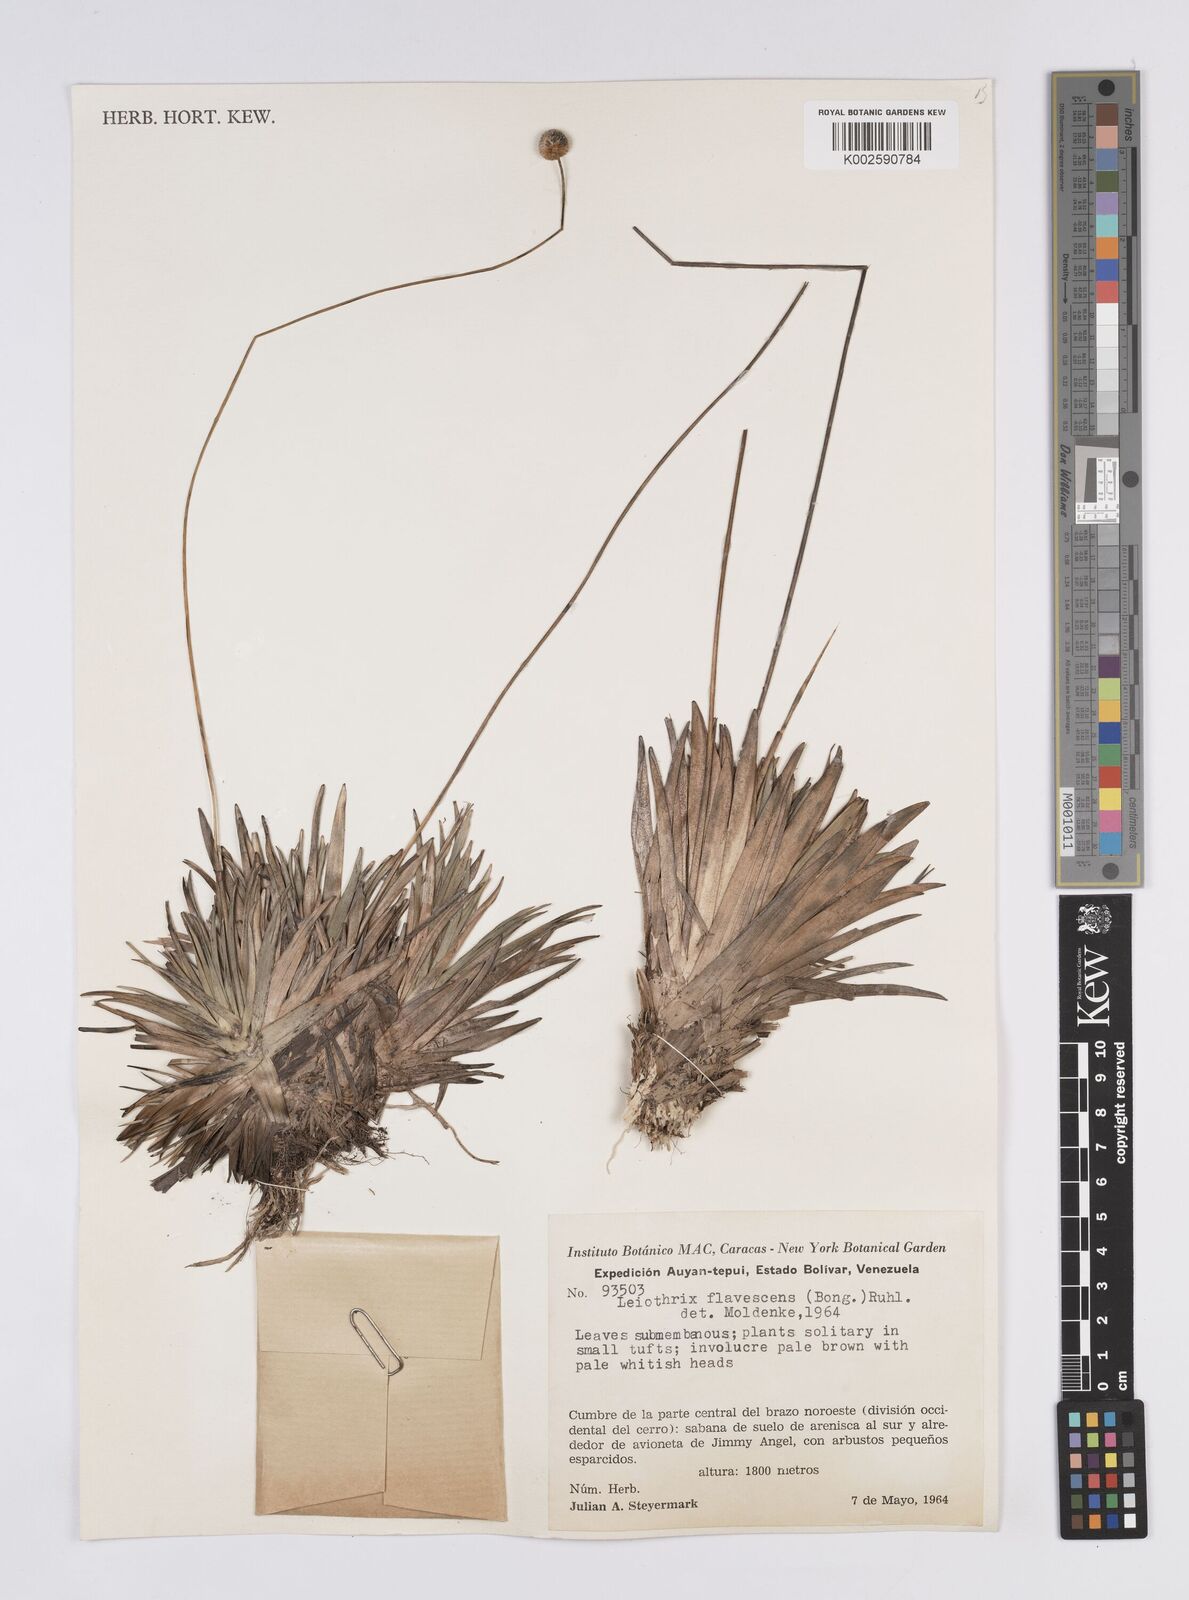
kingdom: Plantae
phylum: Tracheophyta
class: Liliopsida
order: Poales
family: Eriocaulaceae
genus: Leiothrix
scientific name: Leiothrix flavescens
